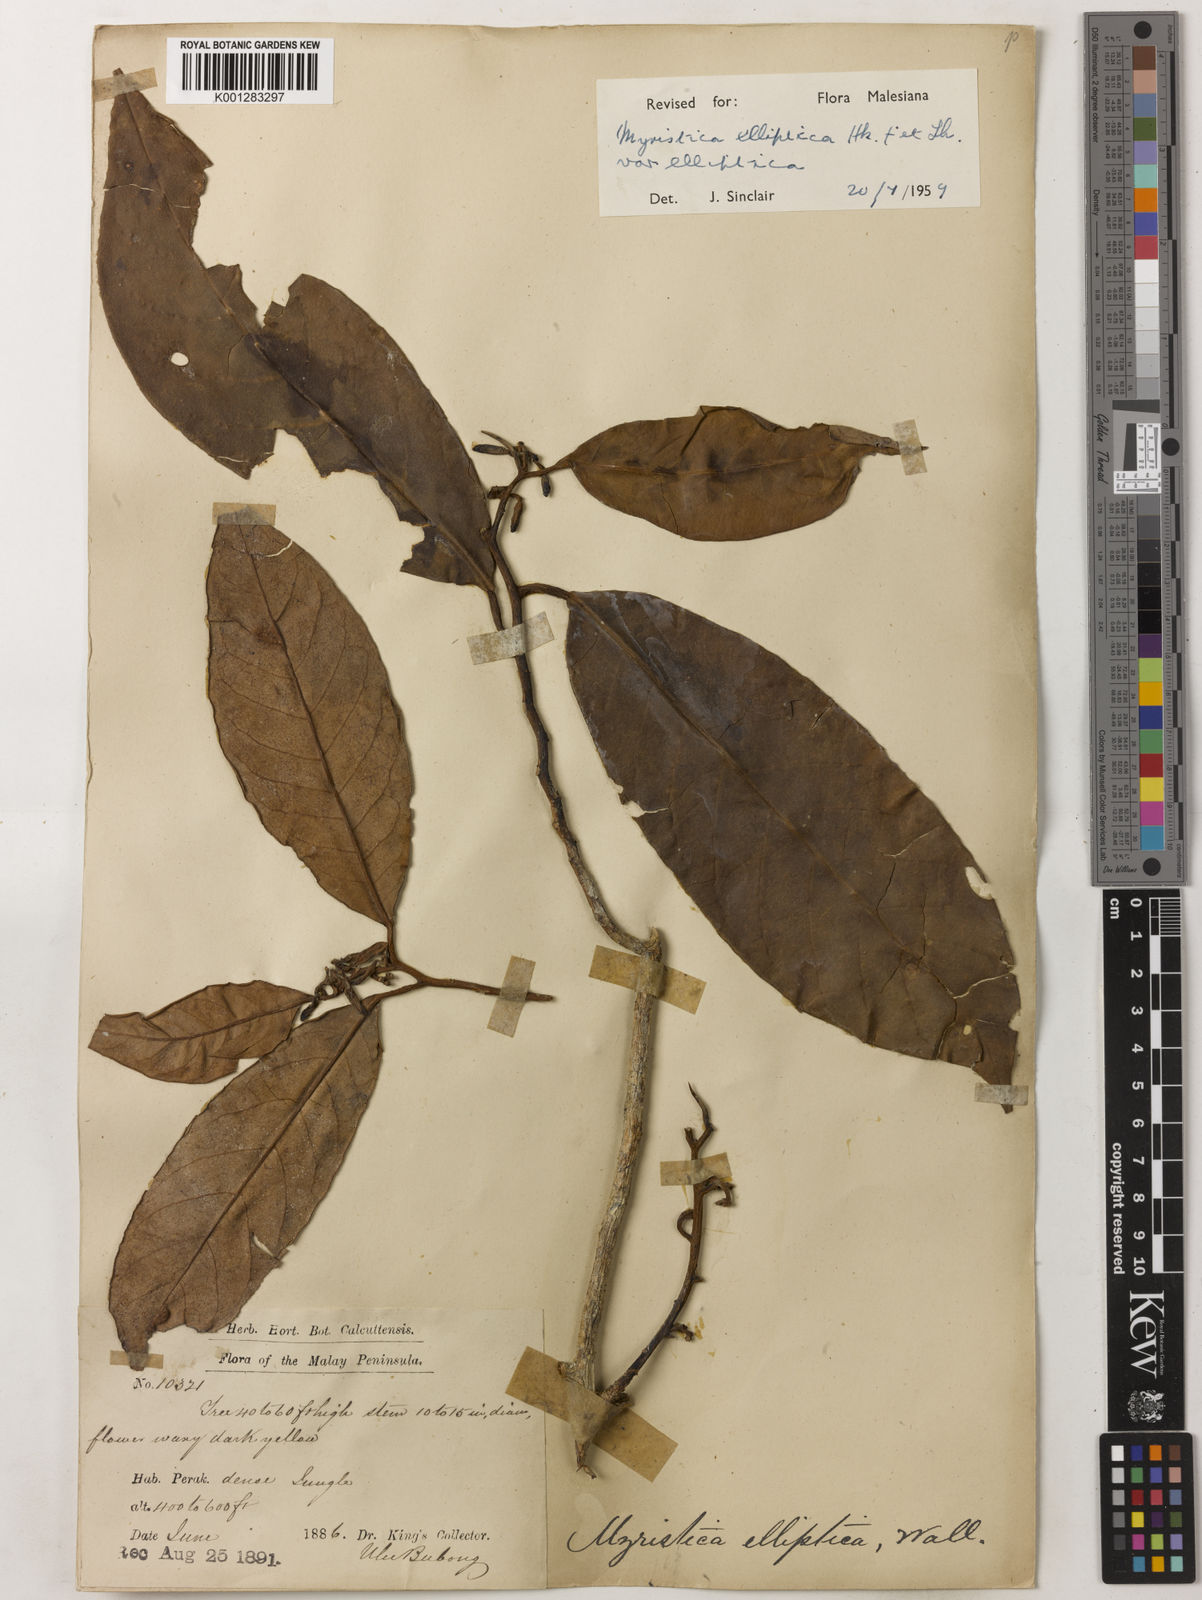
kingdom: Plantae
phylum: Tracheophyta
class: Magnoliopsida
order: Magnoliales
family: Myristicaceae
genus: Myristica
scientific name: Myristica elliptica
